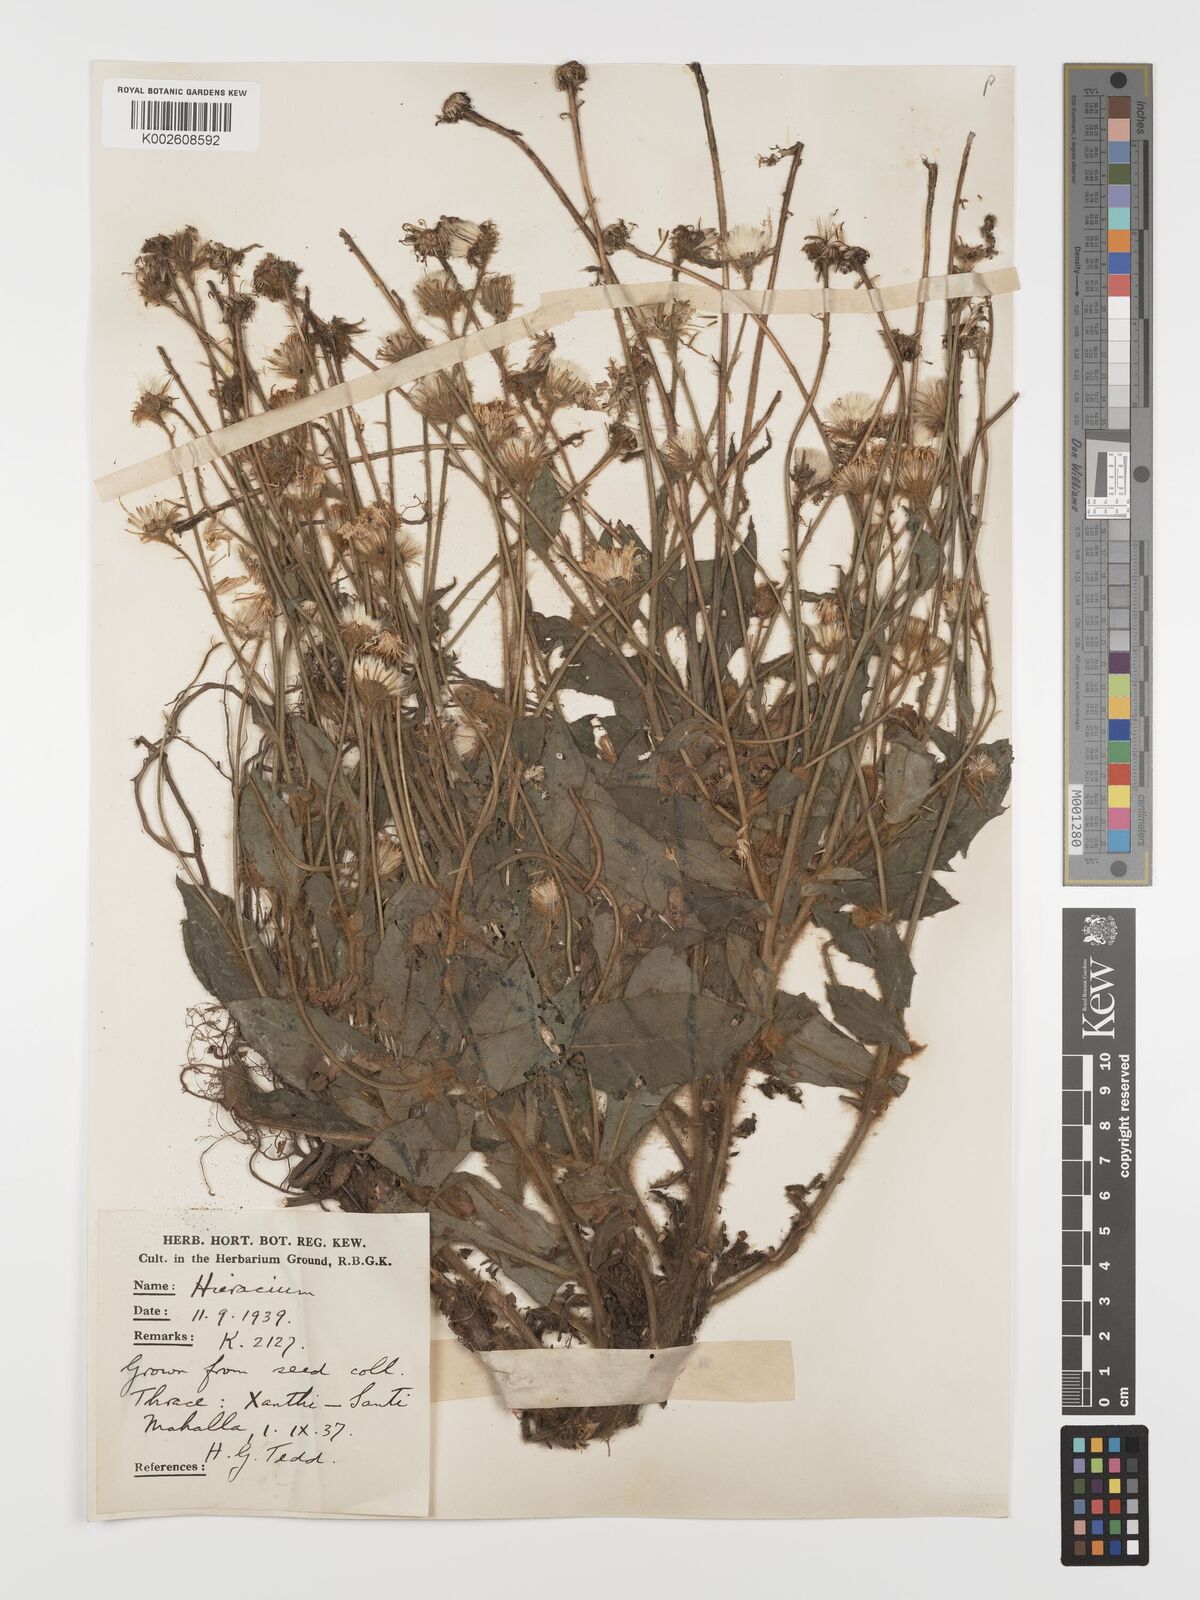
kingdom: Plantae
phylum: Tracheophyta
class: Magnoliopsida
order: Asterales
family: Asteraceae
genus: Hieracium
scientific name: Hieracium pannosum
